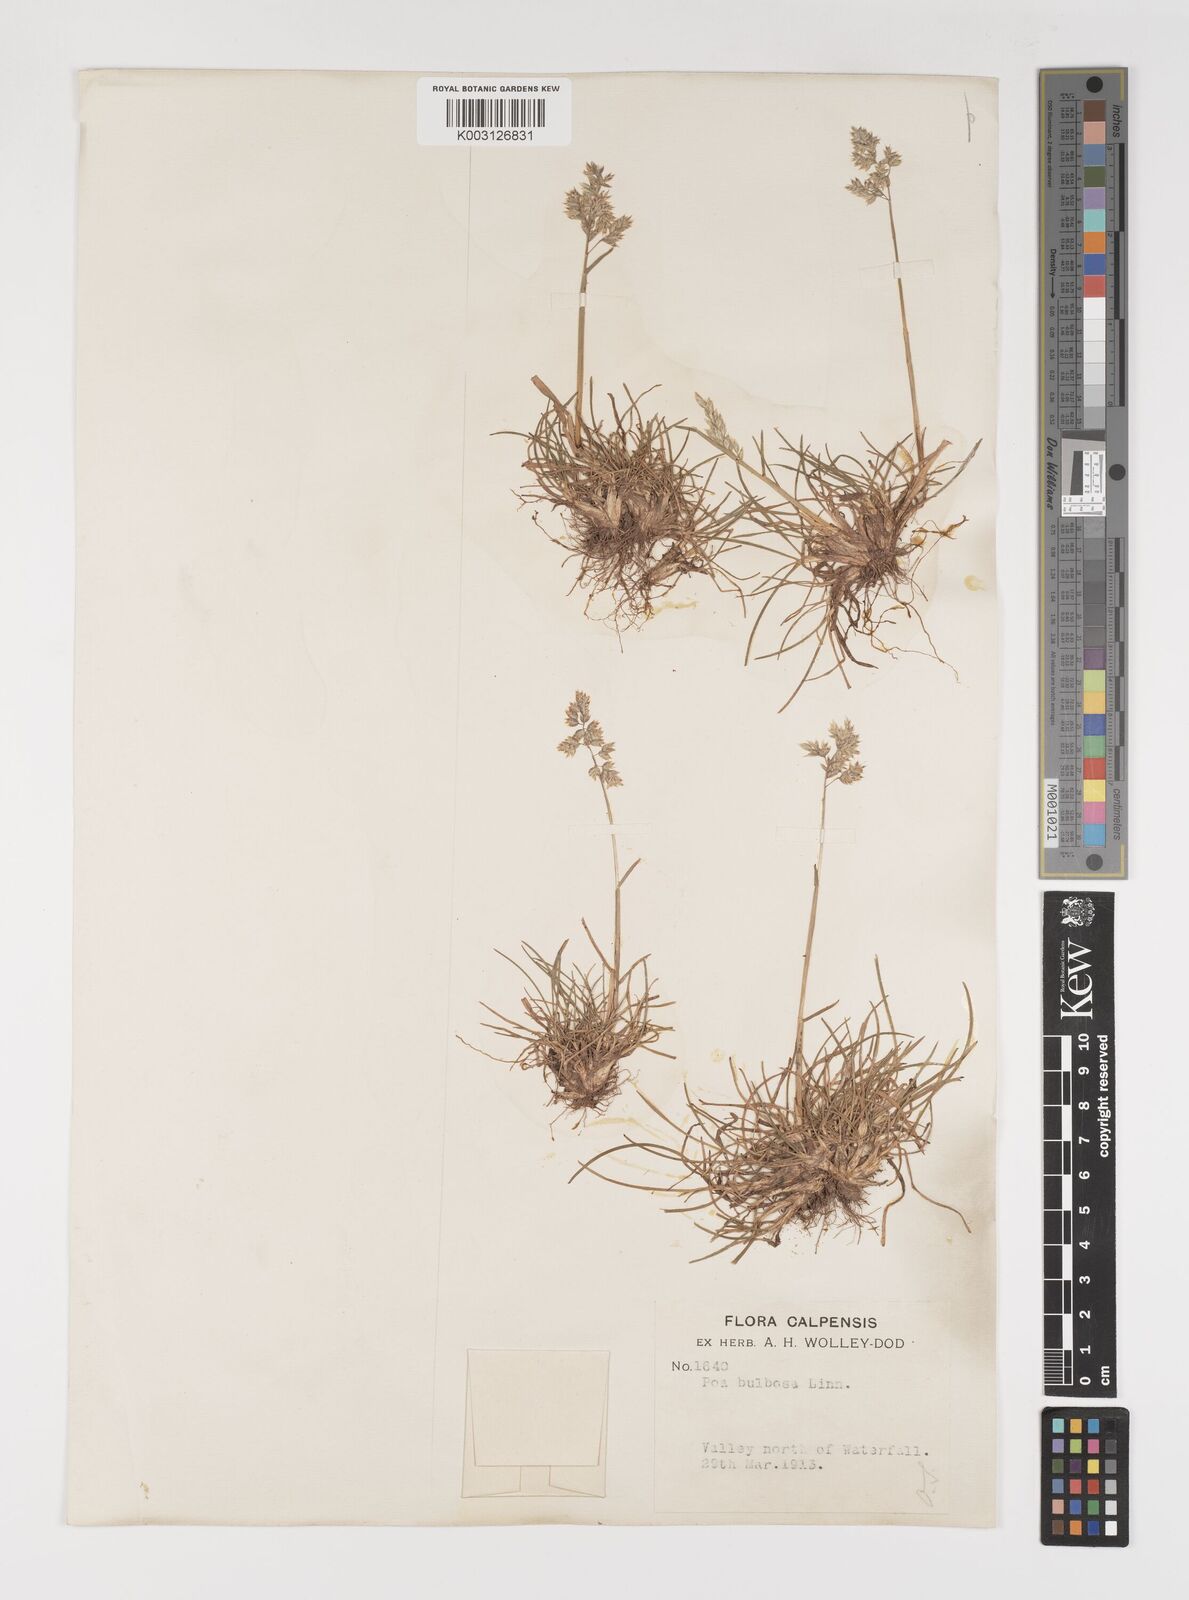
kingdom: Plantae
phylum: Tracheophyta
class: Liliopsida
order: Poales
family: Poaceae
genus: Poa
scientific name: Poa bulbosa
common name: Bulbous bluegrass
